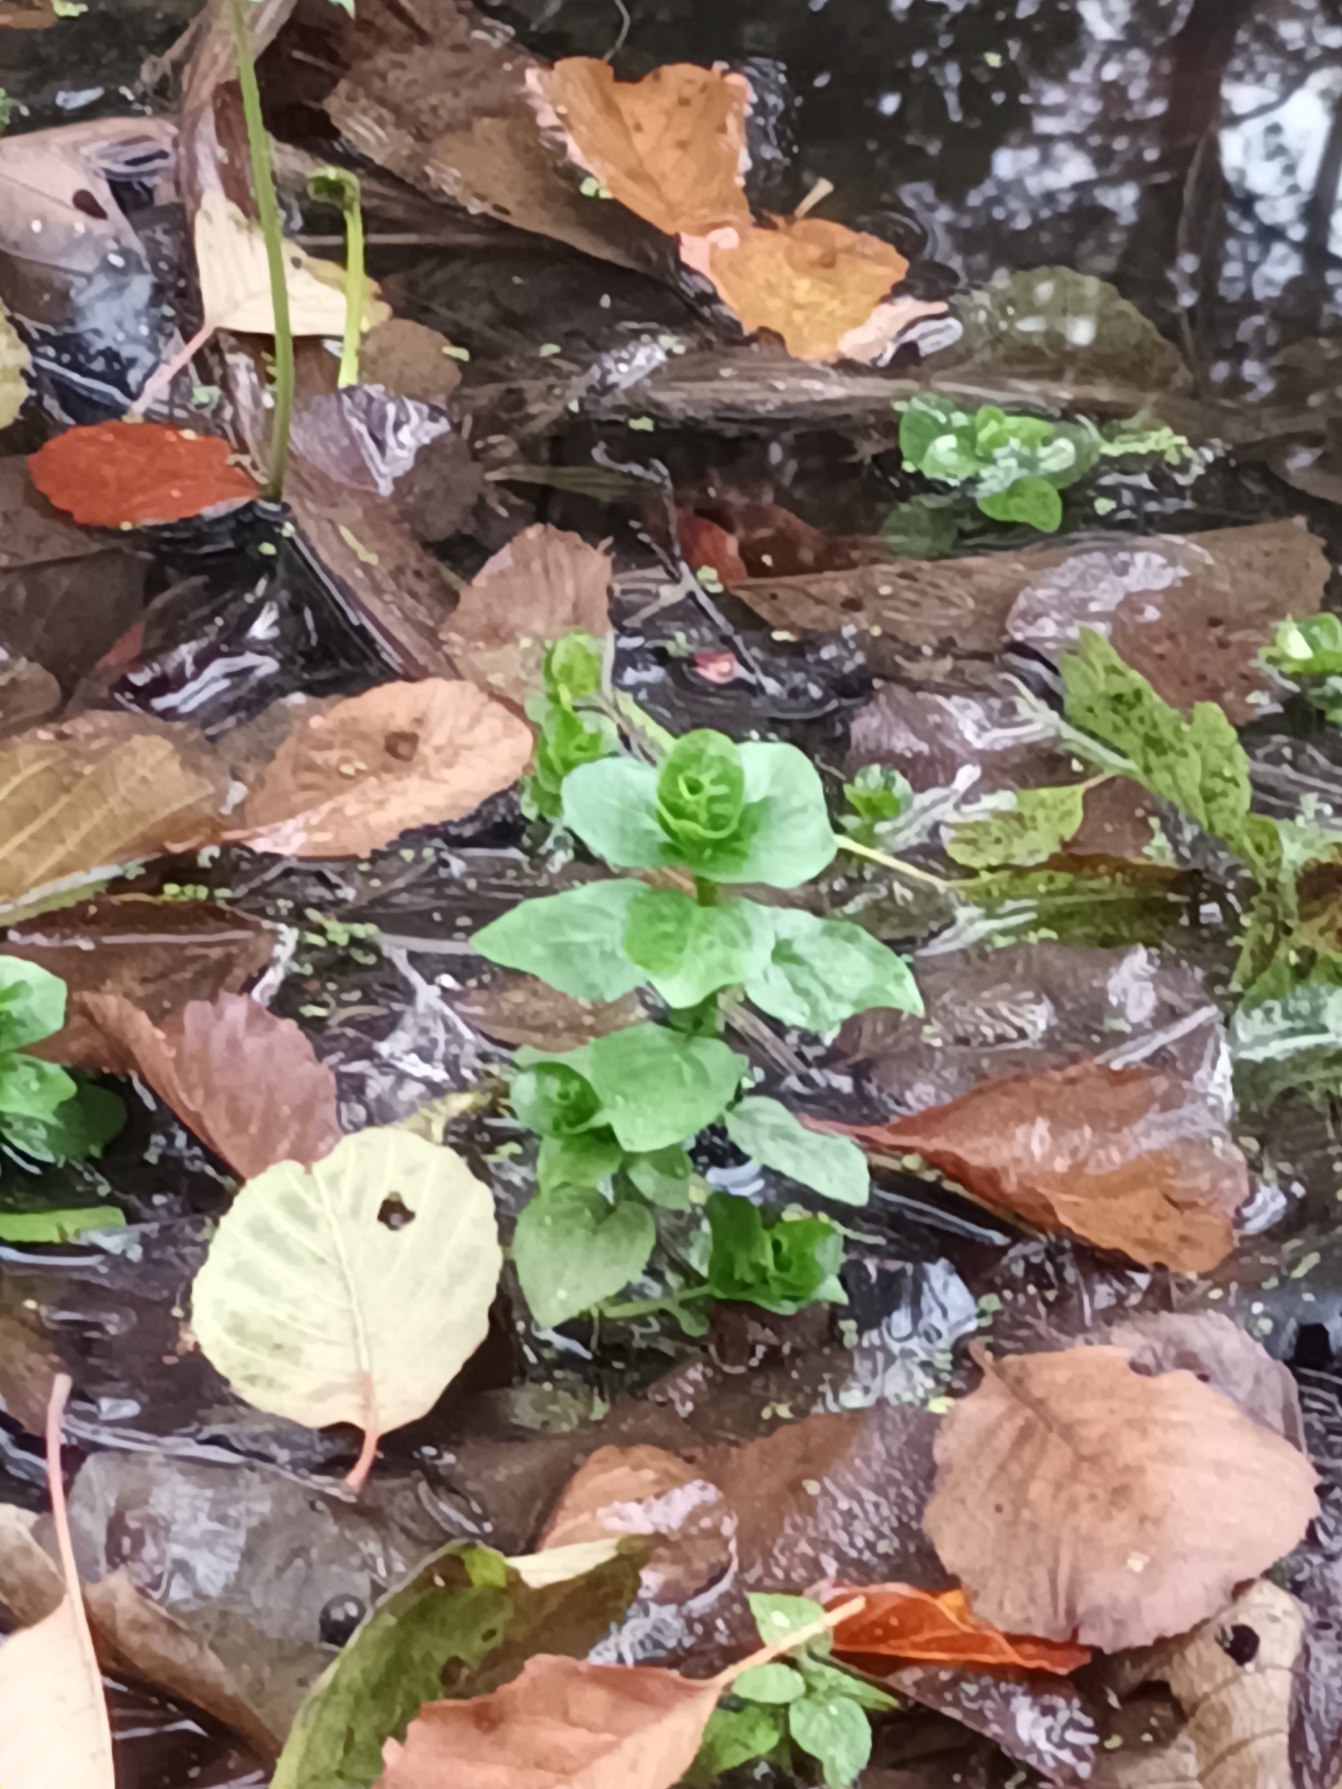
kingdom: Plantae
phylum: Tracheophyta
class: Magnoliopsida
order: Lamiales
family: Plantaginaceae
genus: Veronica
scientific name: Veronica beccabunga
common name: Tykbladet ærenpris
